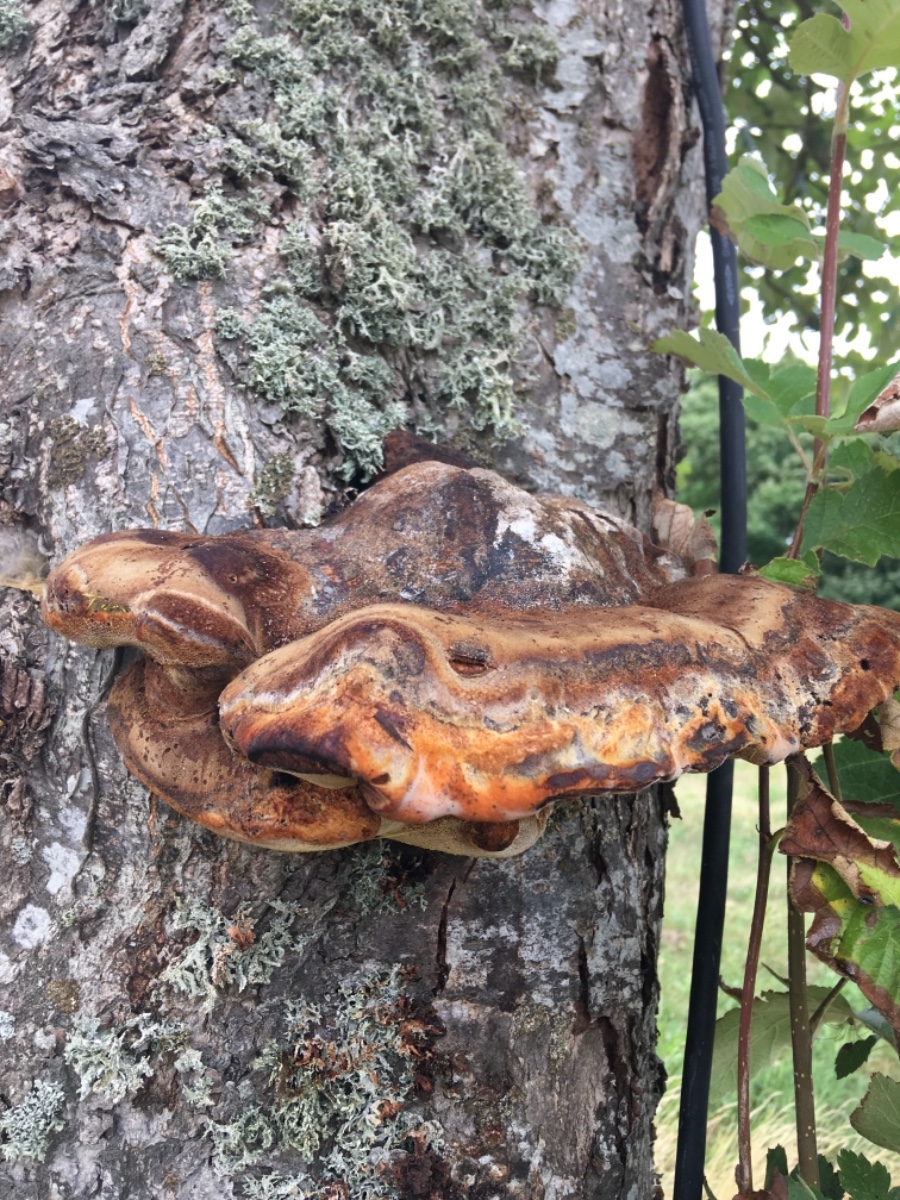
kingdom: Fungi
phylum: Basidiomycota
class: Agaricomycetes
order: Hymenochaetales
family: Hymenochaetaceae
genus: Inonotus
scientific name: Inonotus hispidus
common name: børstehåret spejlporesvamp
